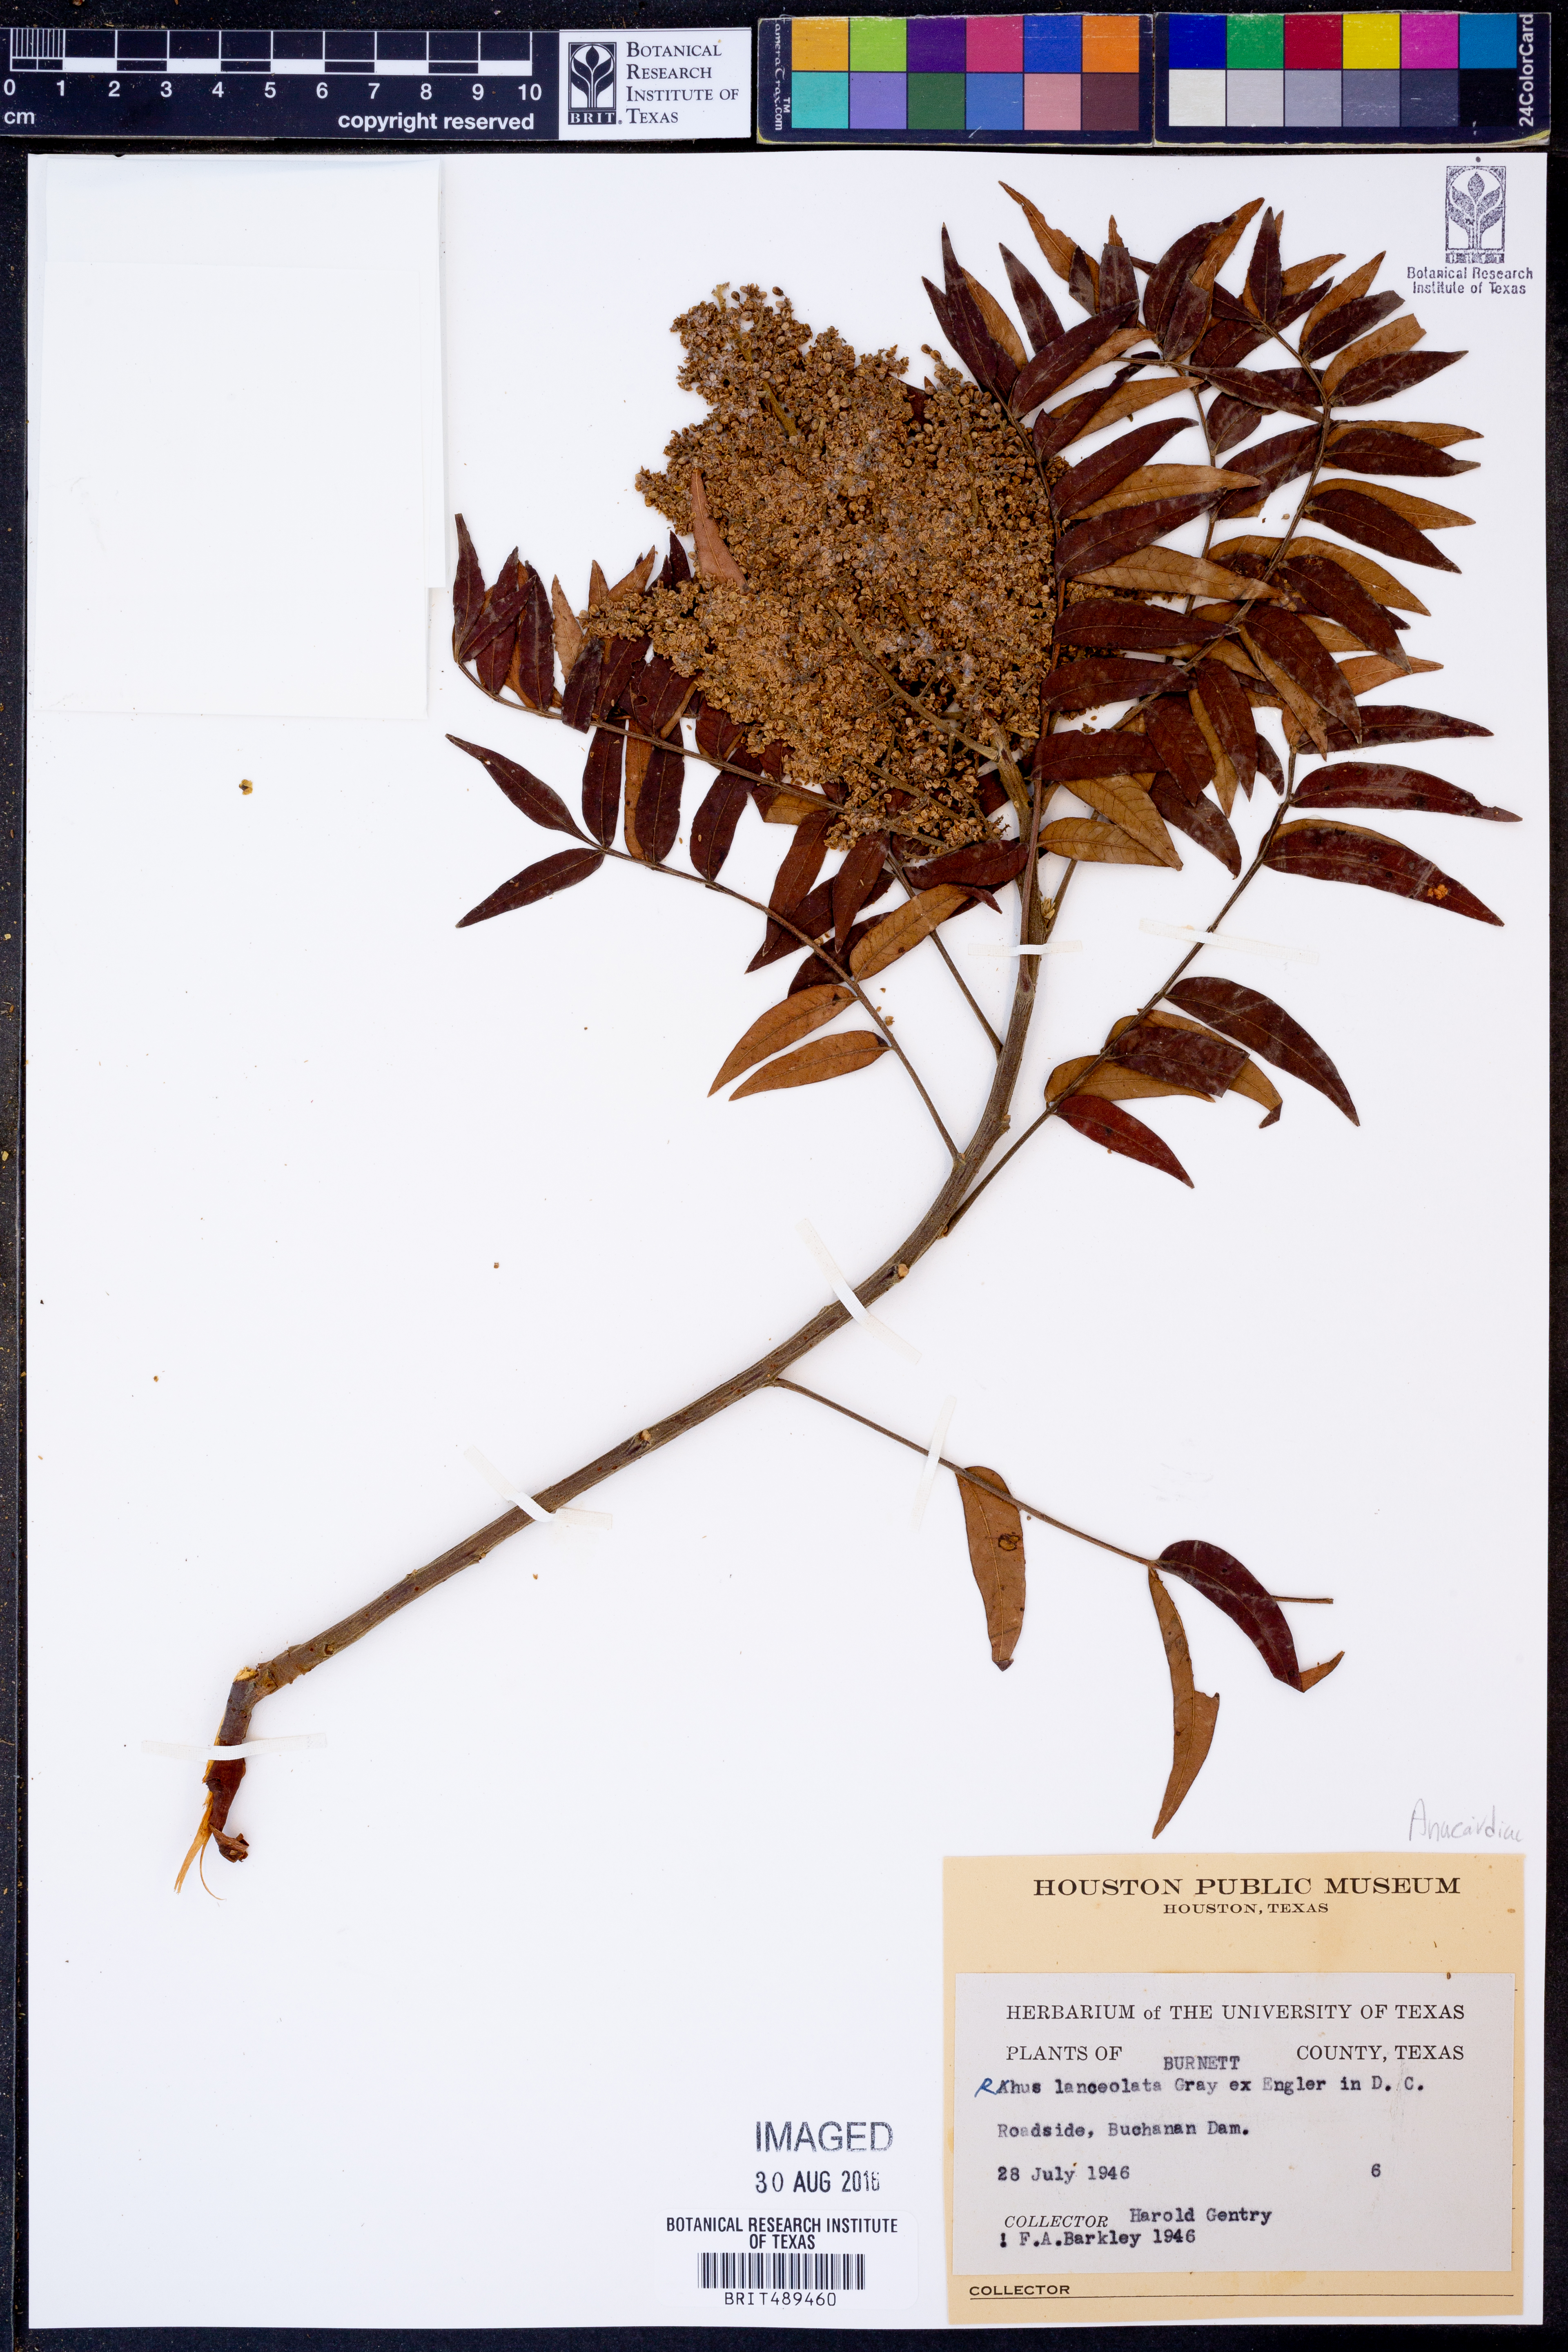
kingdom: Plantae
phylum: Tracheophyta
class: Magnoliopsida
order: Sapindales
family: Anacardiaceae
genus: Rhus
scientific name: Rhus lanceolata
